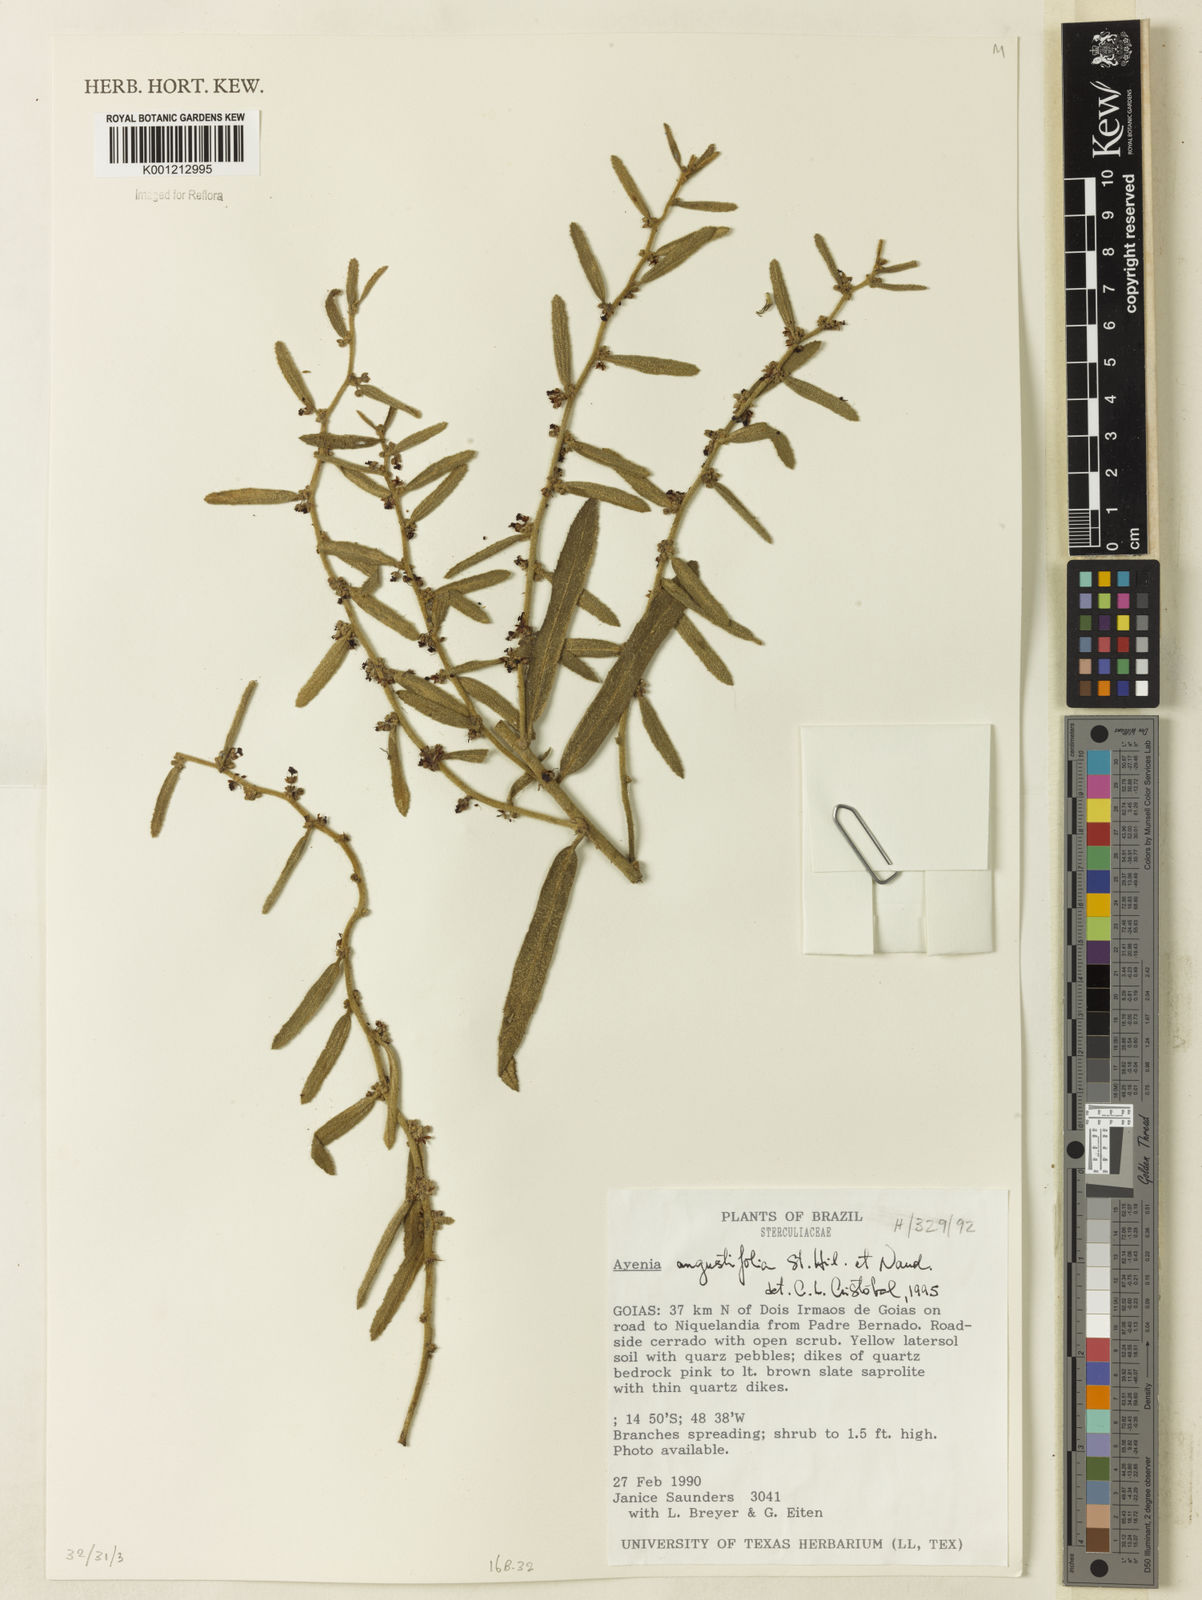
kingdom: Plantae
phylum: Tracheophyta
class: Magnoliopsida
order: Malvales
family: Malvaceae
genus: Ayenia
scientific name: Ayenia angustifolia
